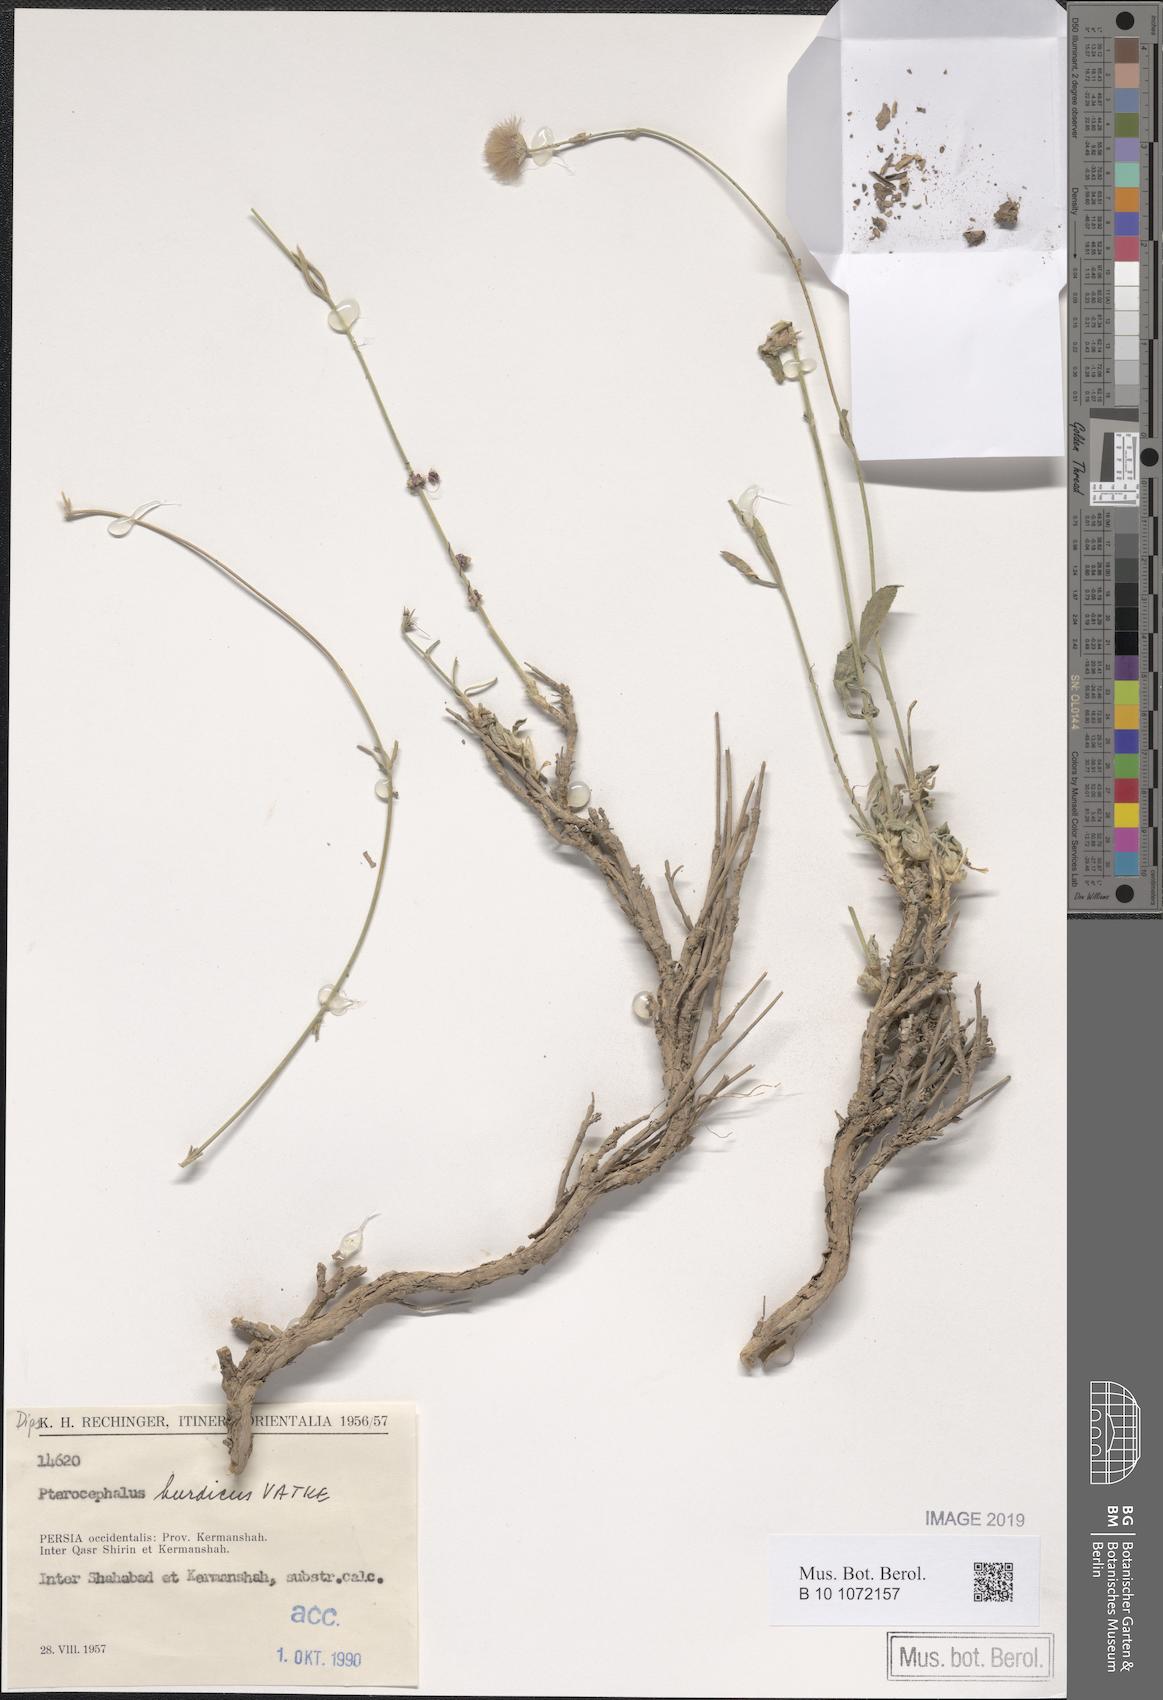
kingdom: Plantae
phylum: Tracheophyta
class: Magnoliopsida
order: Dipsacales
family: Caprifoliaceae
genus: Pterocephalus
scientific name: Pterocephalus kurdicus
